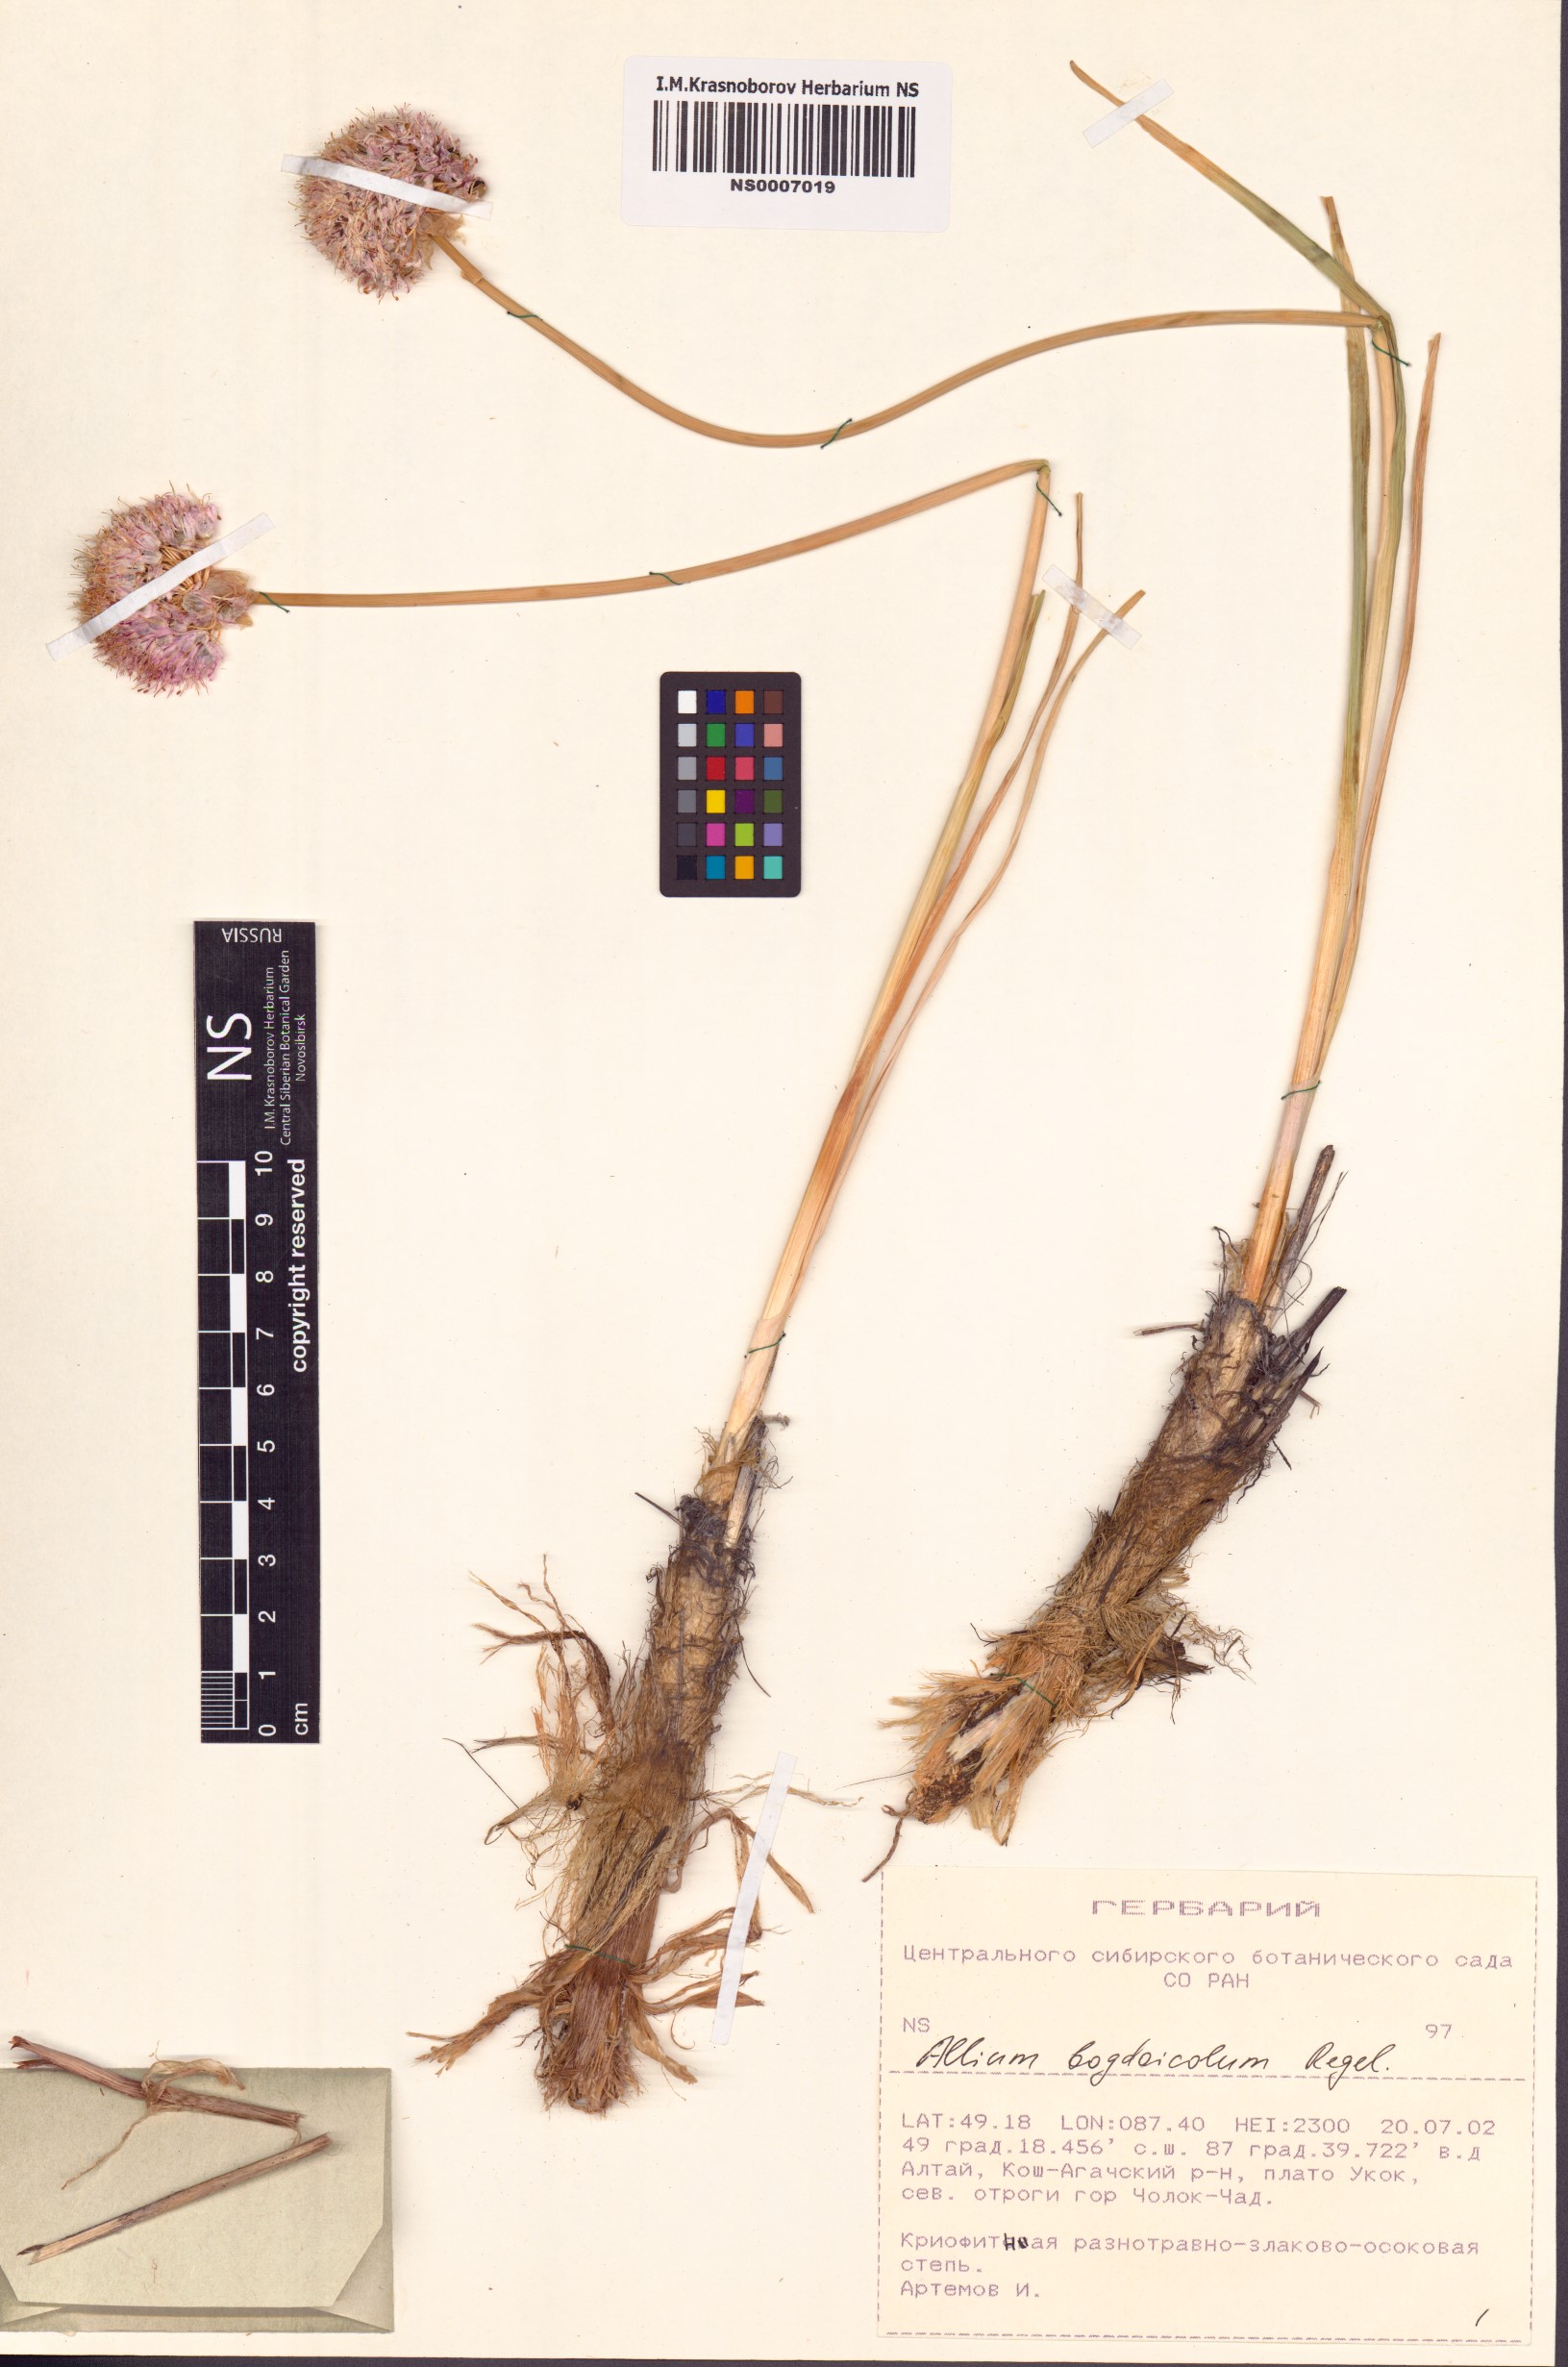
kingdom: Plantae
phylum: Tracheophyta
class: Liliopsida
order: Asparagales
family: Amaryllidaceae
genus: Allium
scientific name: Allium schrenkii
